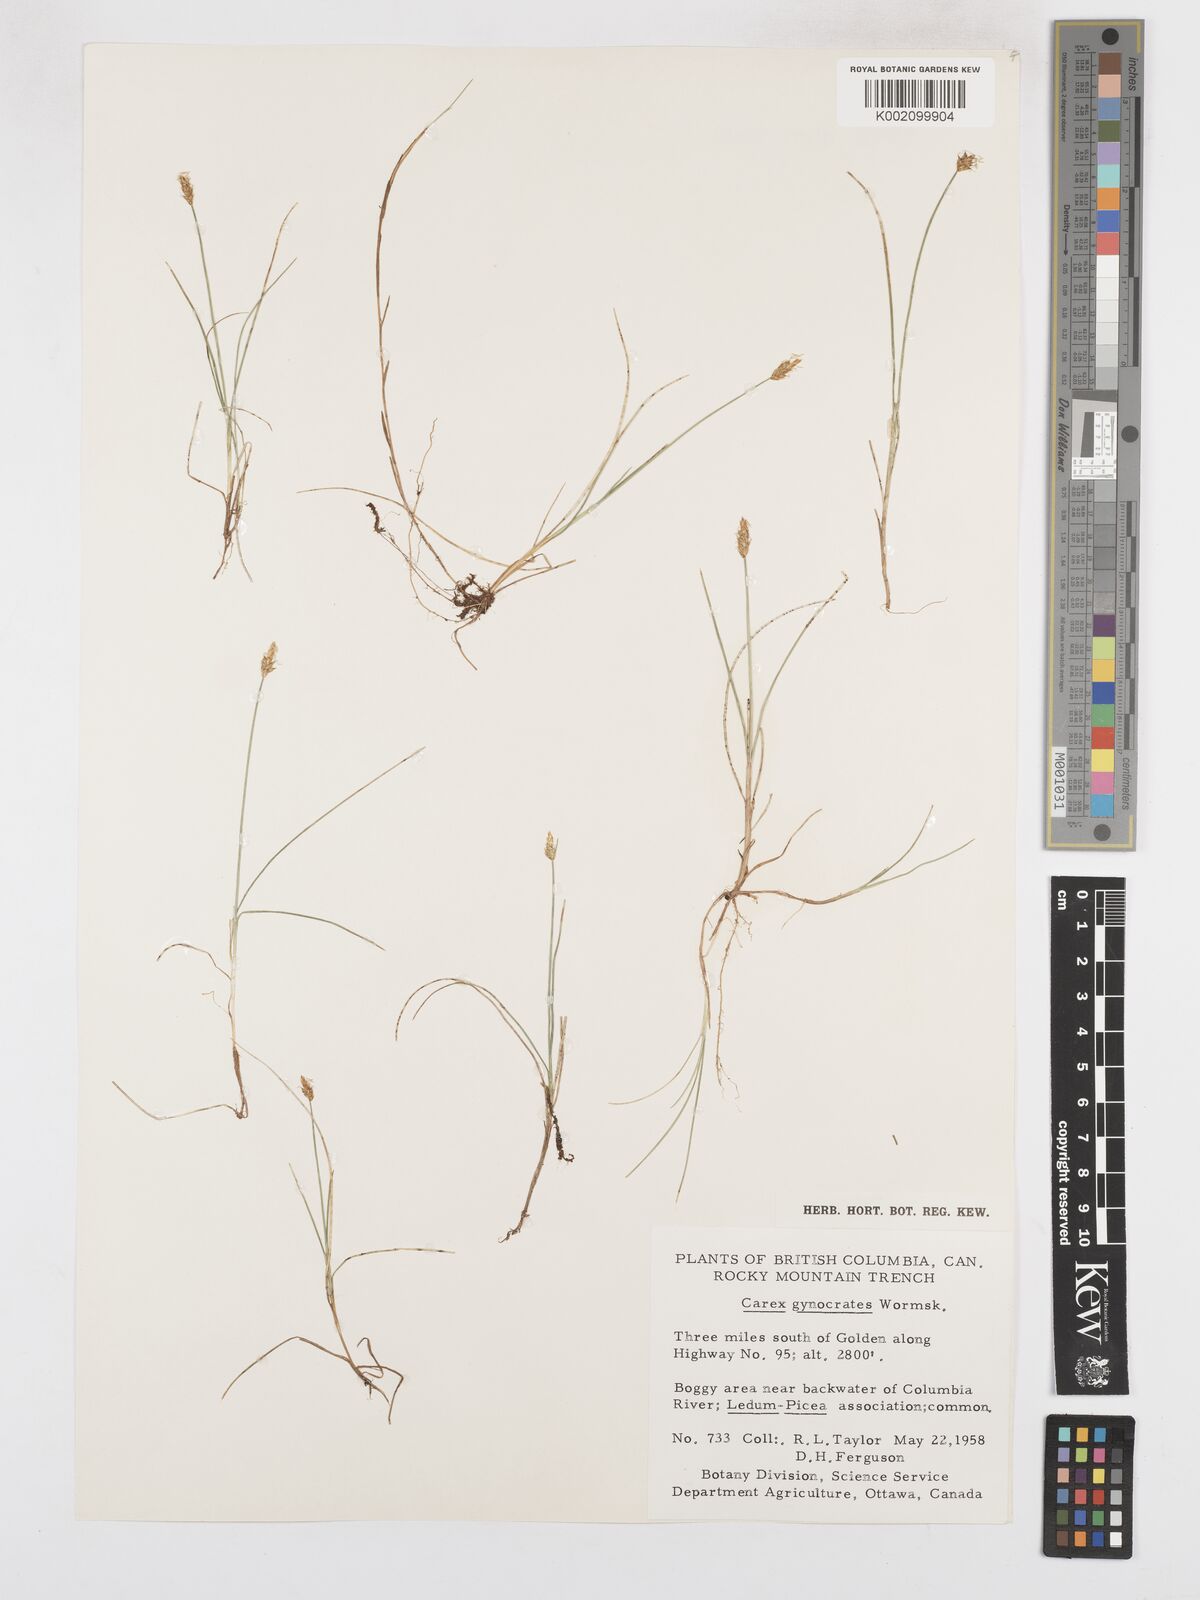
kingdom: Plantae
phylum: Tracheophyta
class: Liliopsida
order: Poales
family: Cyperaceae
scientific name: Cyperaceae
